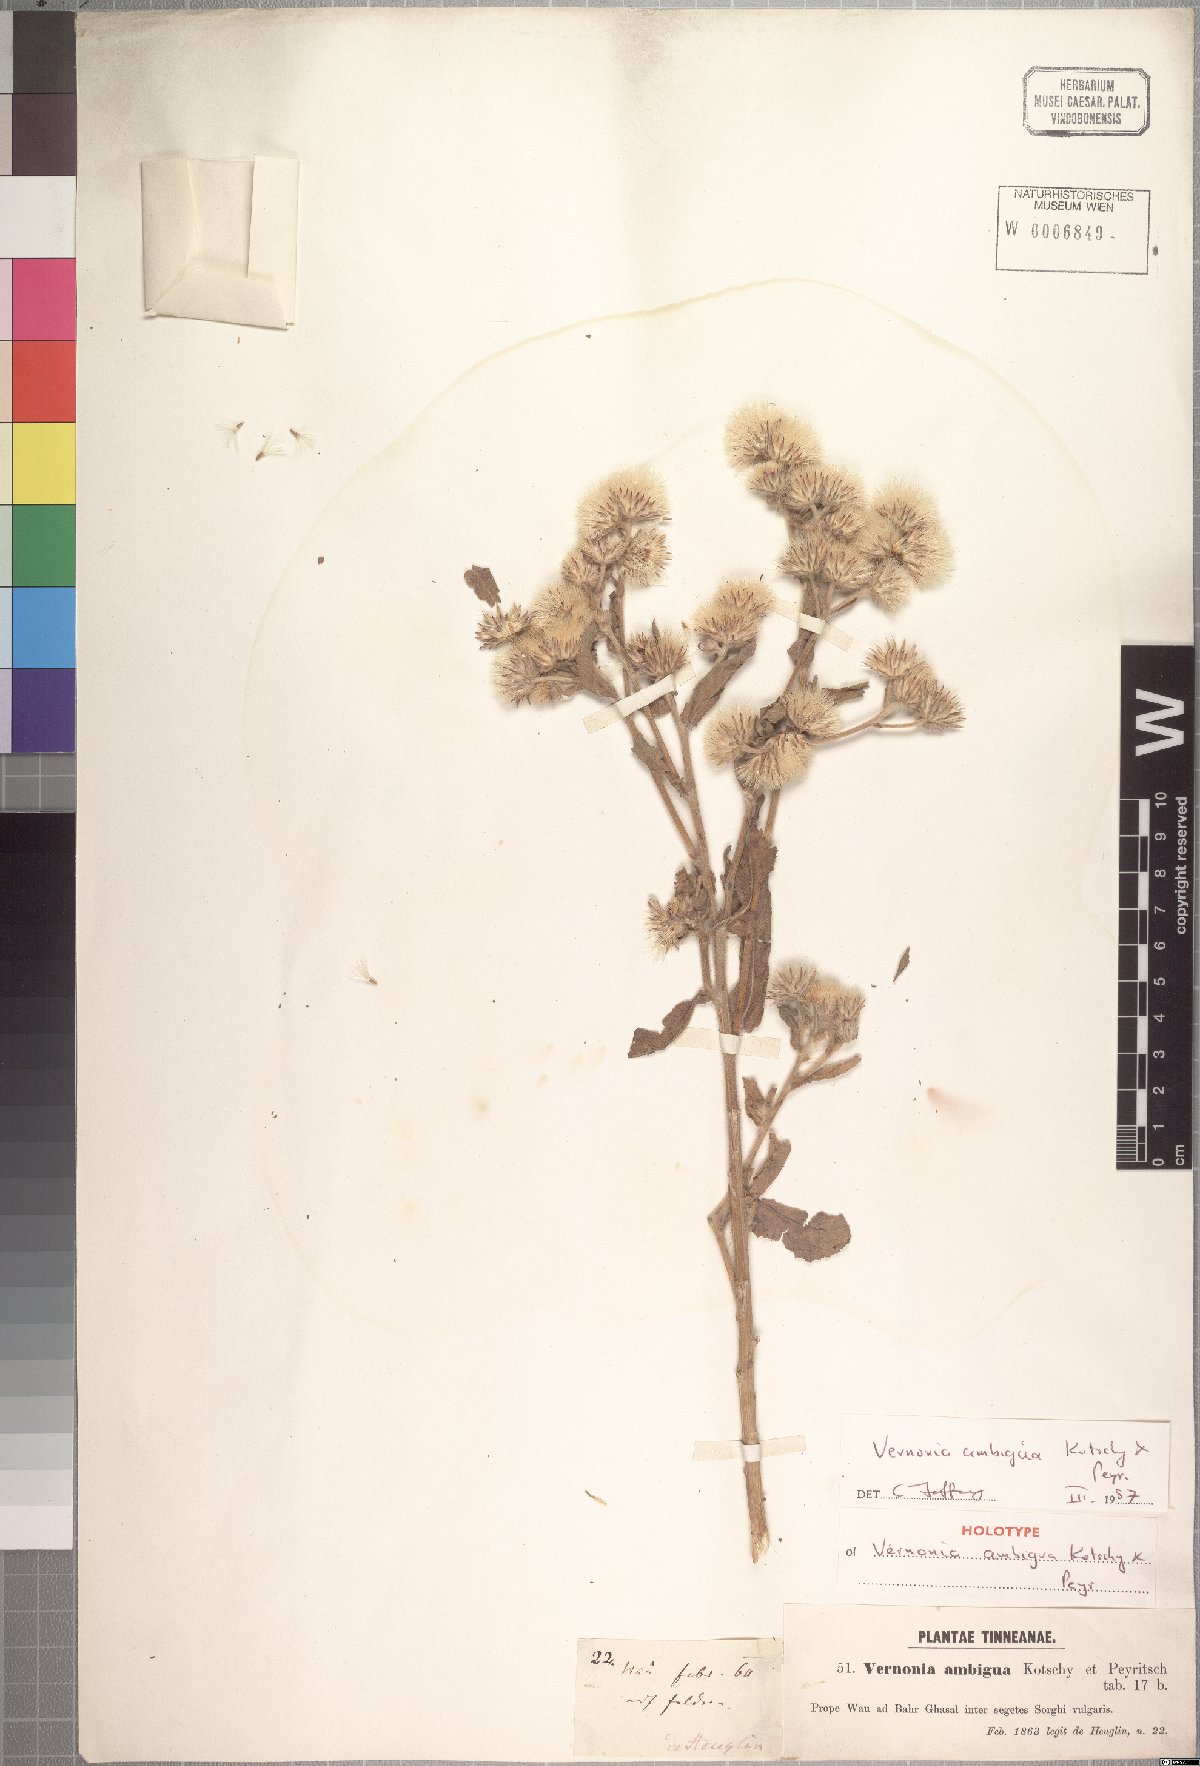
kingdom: Plantae
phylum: Tracheophyta
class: Magnoliopsida
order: Asterales
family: Asteraceae
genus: Vernoniastrum
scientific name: Vernoniastrum ambiguum
